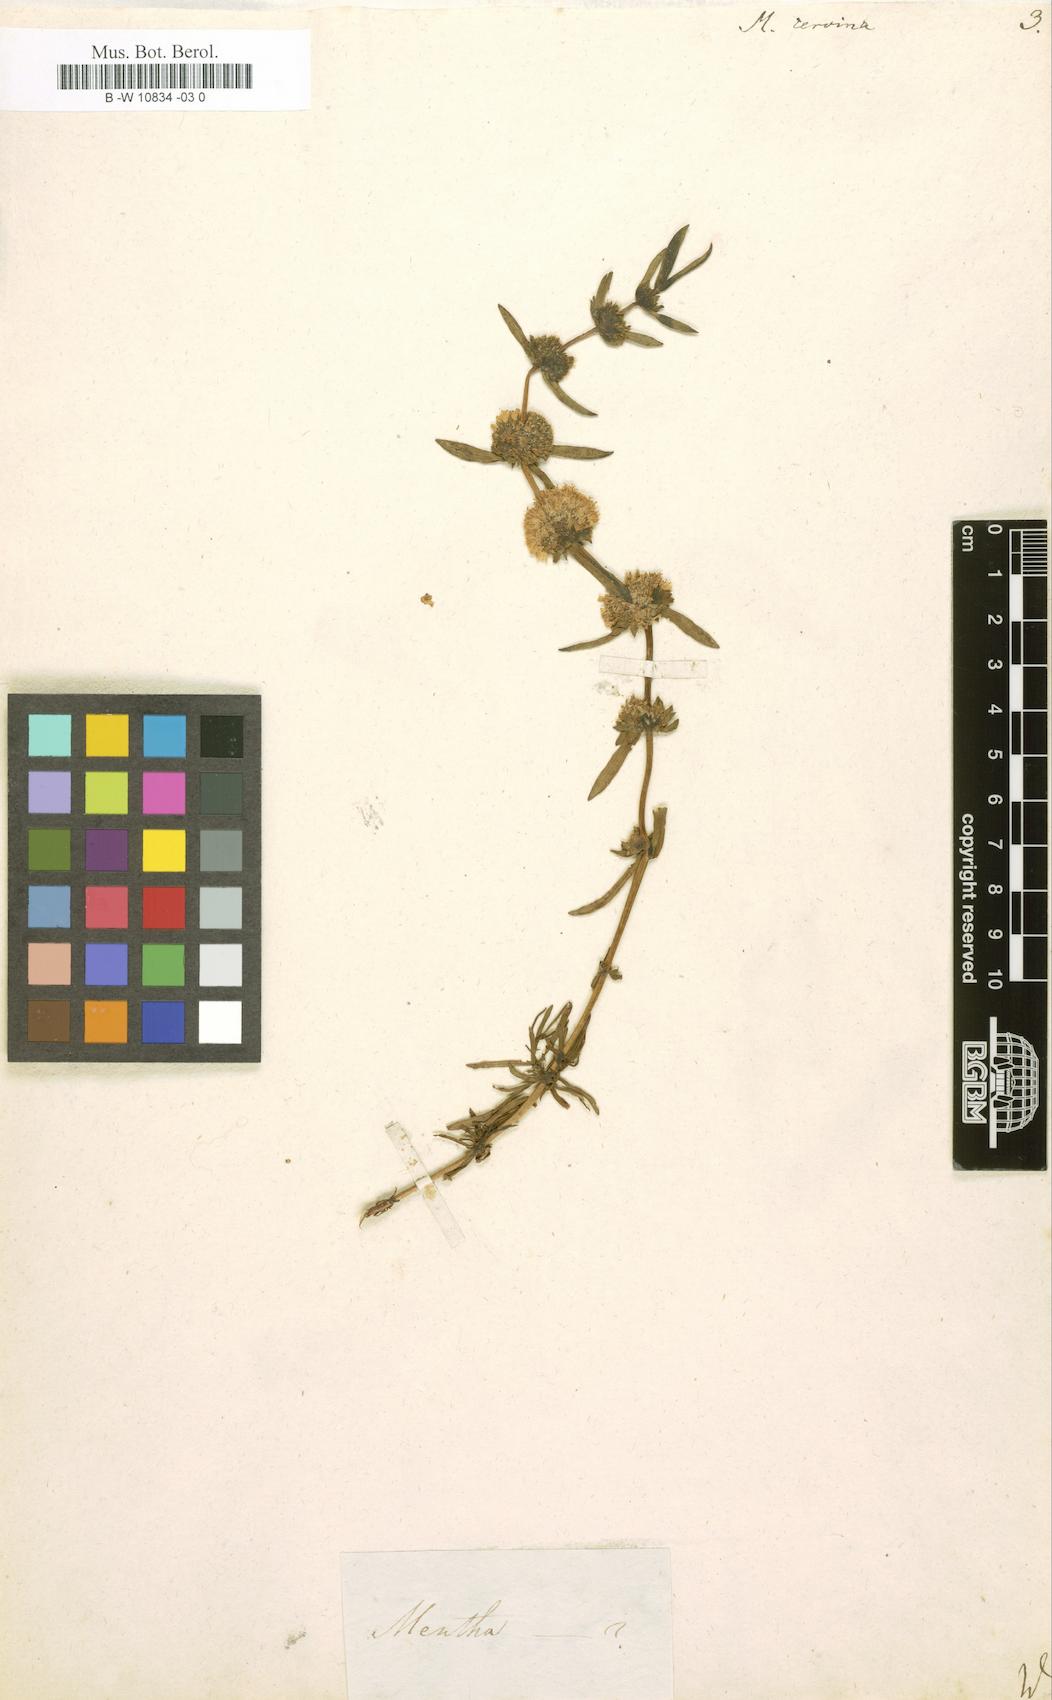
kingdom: Plantae
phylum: Tracheophyta
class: Magnoliopsida
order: Lamiales
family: Lamiaceae
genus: Mentha
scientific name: Mentha cervina
